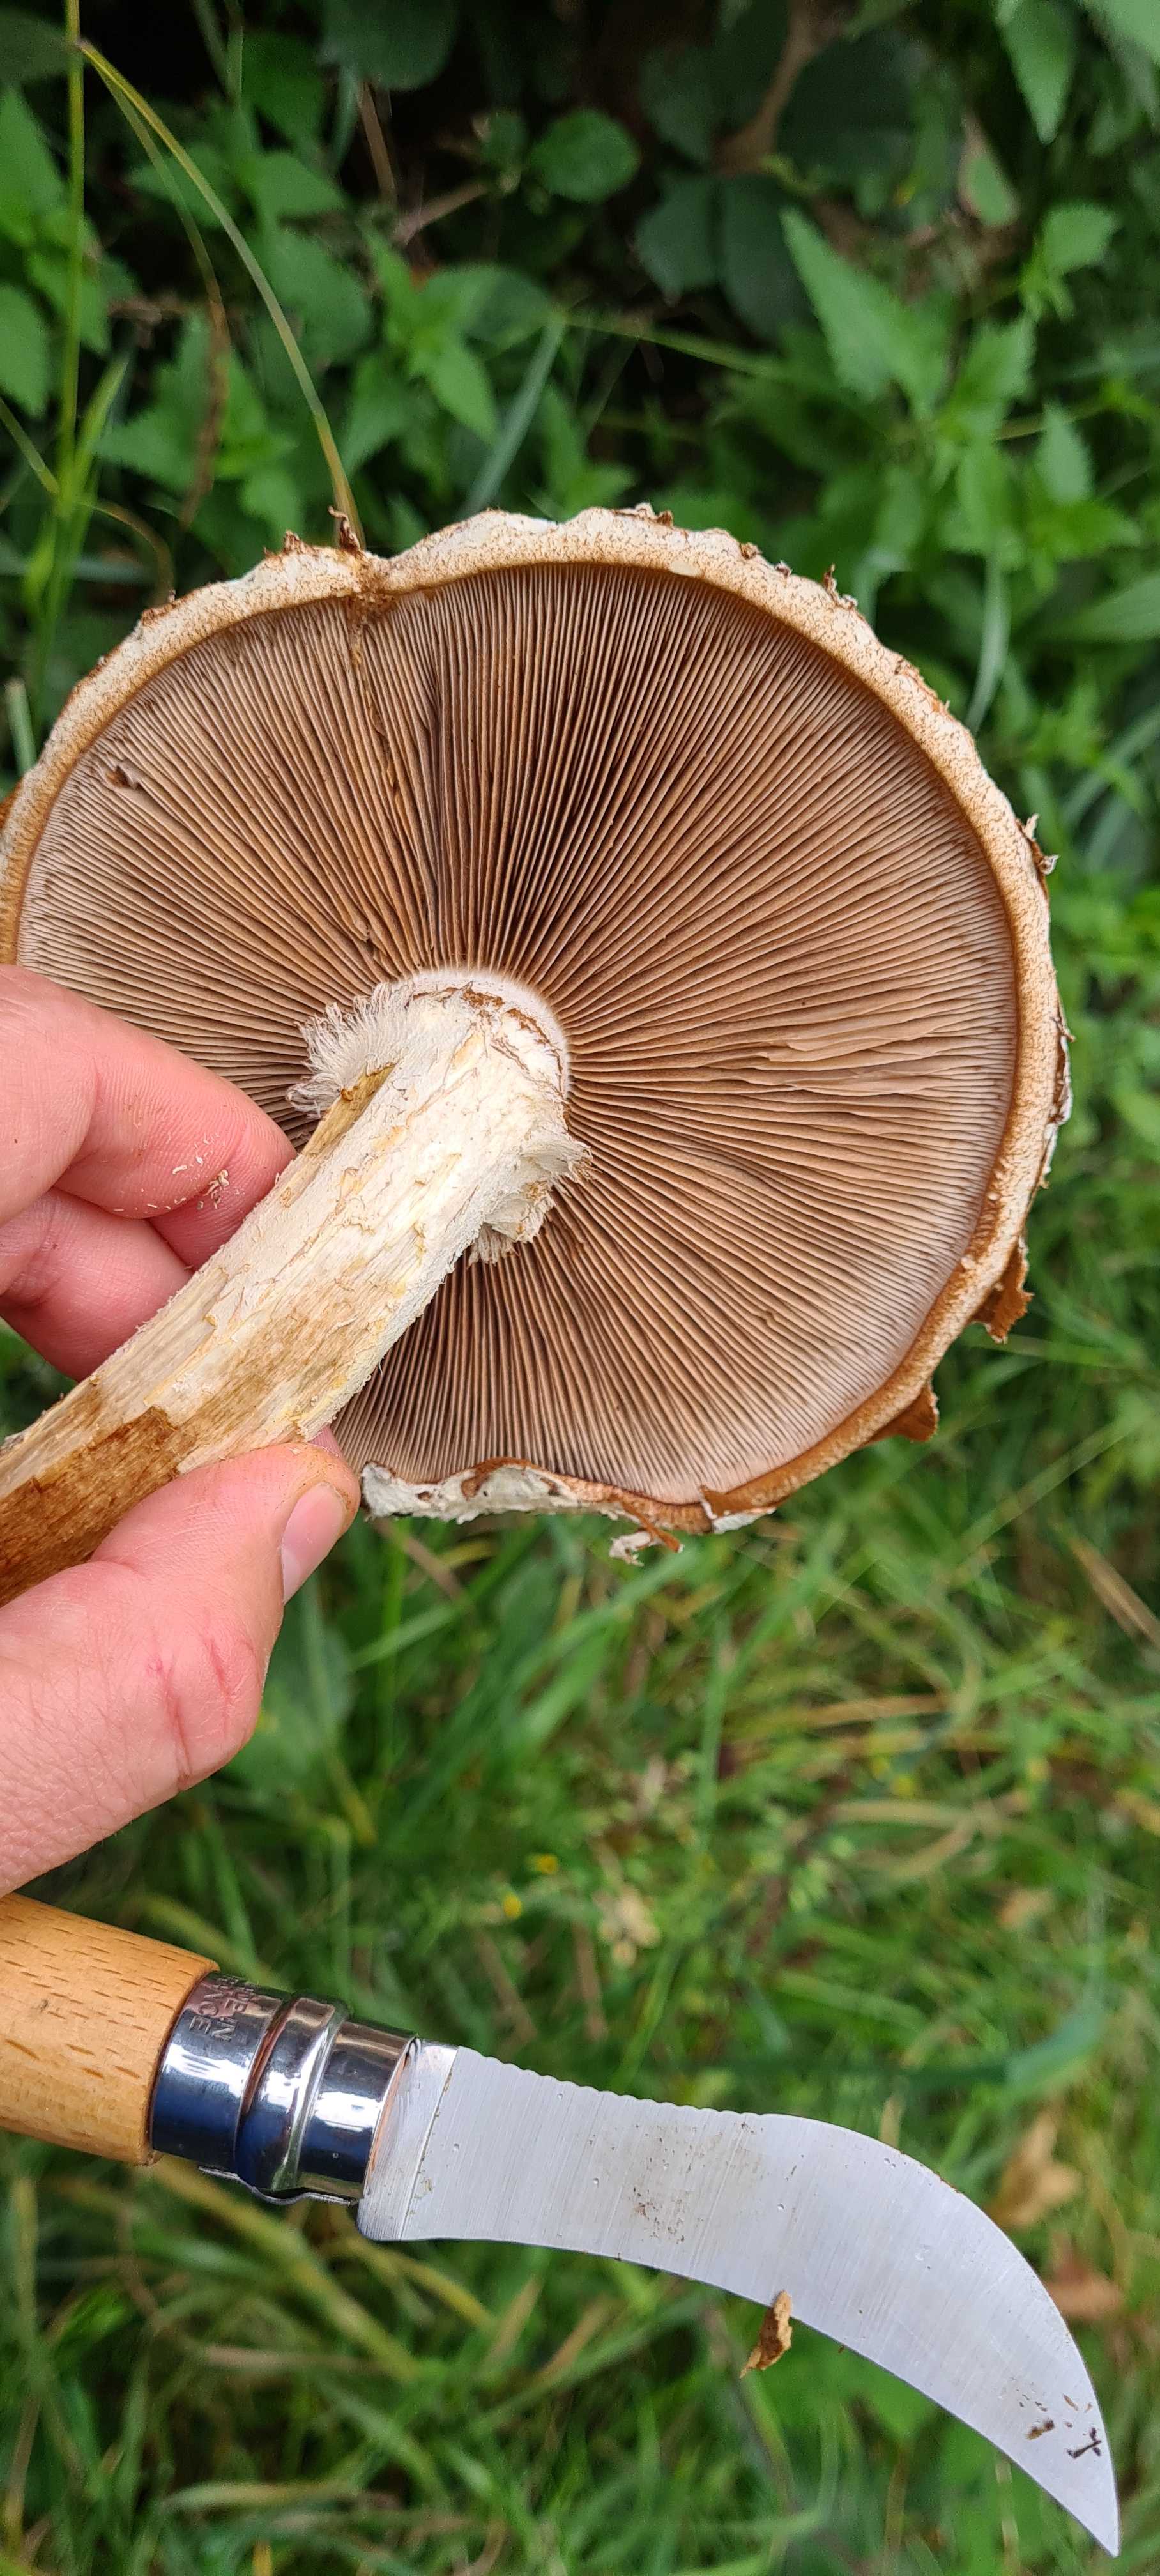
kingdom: Fungi
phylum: Basidiomycota
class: Agaricomycetes
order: Agaricales
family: Strophariaceae
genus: Pholiota
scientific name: Pholiota populnea
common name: poppel-kæmpeskælhat
